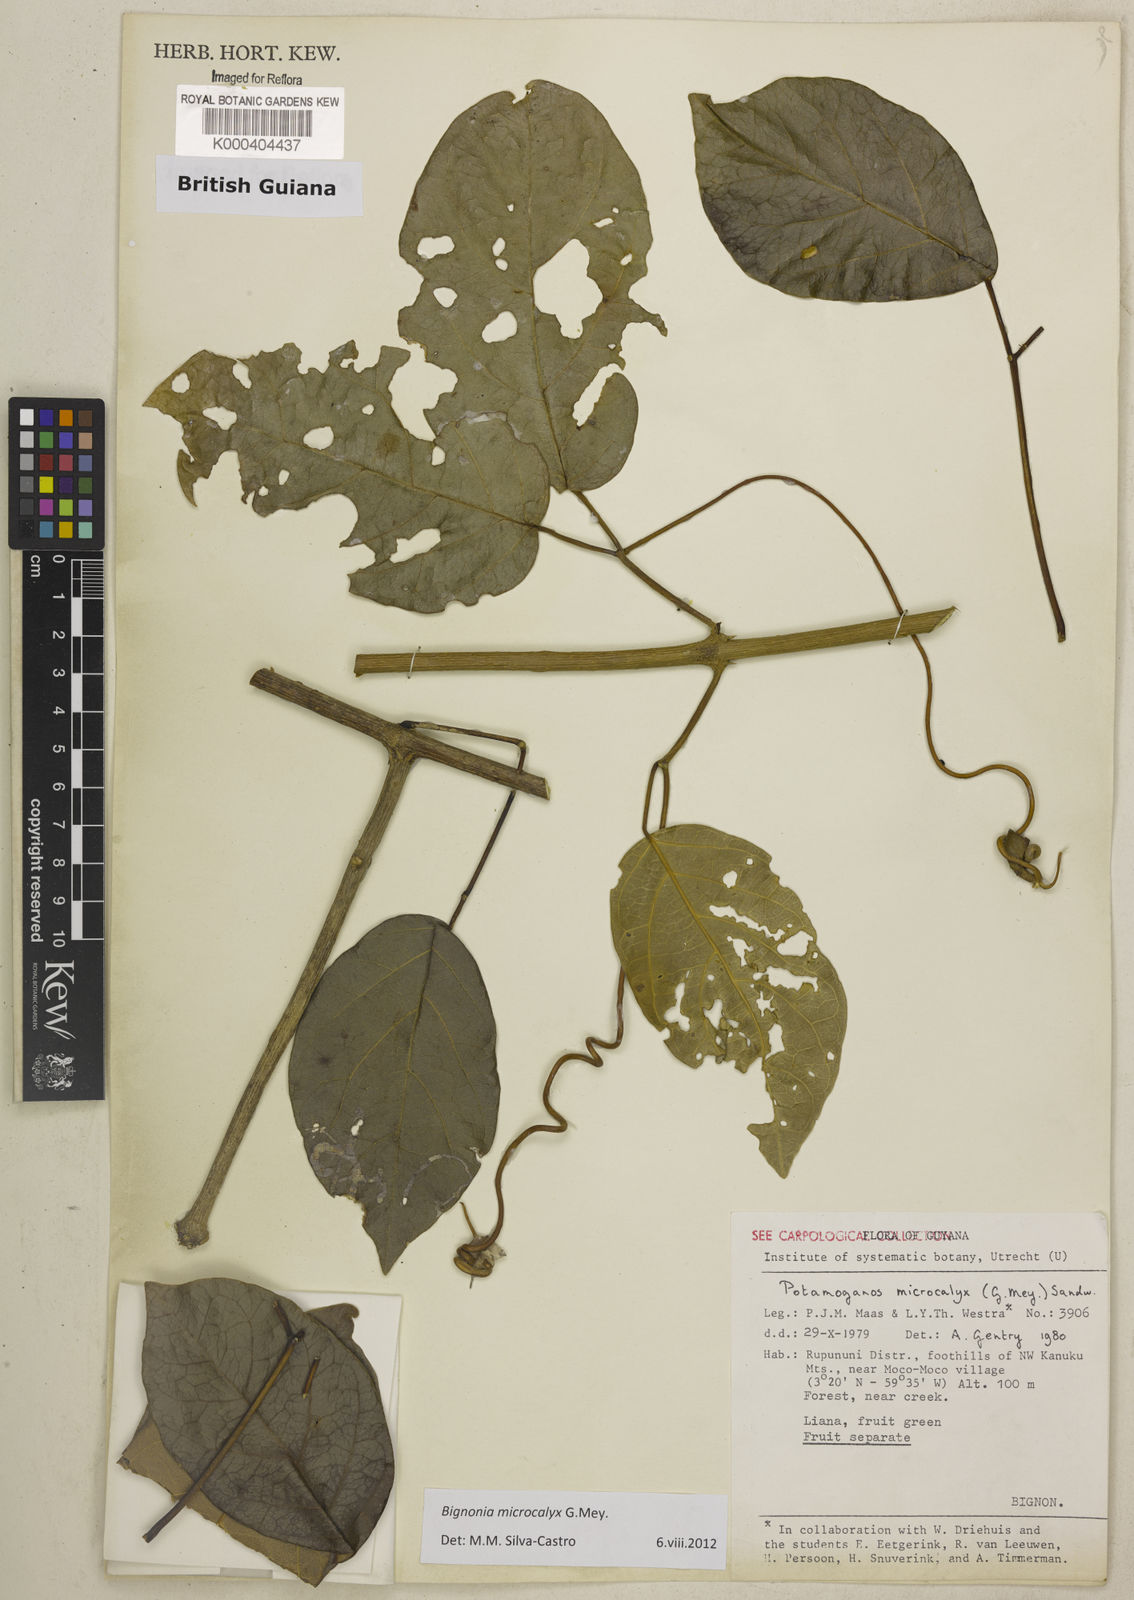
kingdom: Plantae
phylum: Tracheophyta
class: Magnoliopsida
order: Lamiales
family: Bignoniaceae
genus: Bignonia
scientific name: Bignonia microcalyx
